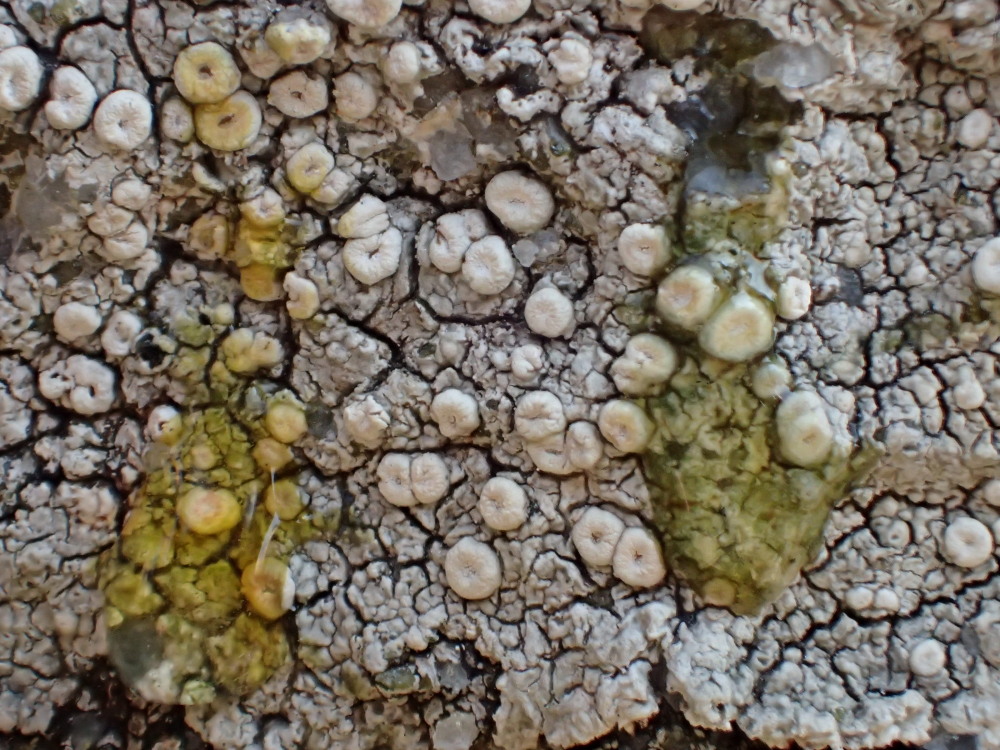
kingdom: Fungi
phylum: Ascomycota
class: Lecanoromycetes
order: Pertusariales
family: Ochrolechiaceae
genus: Ochrolechia
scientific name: Ochrolechia parella
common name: almindelig blegskivelav
